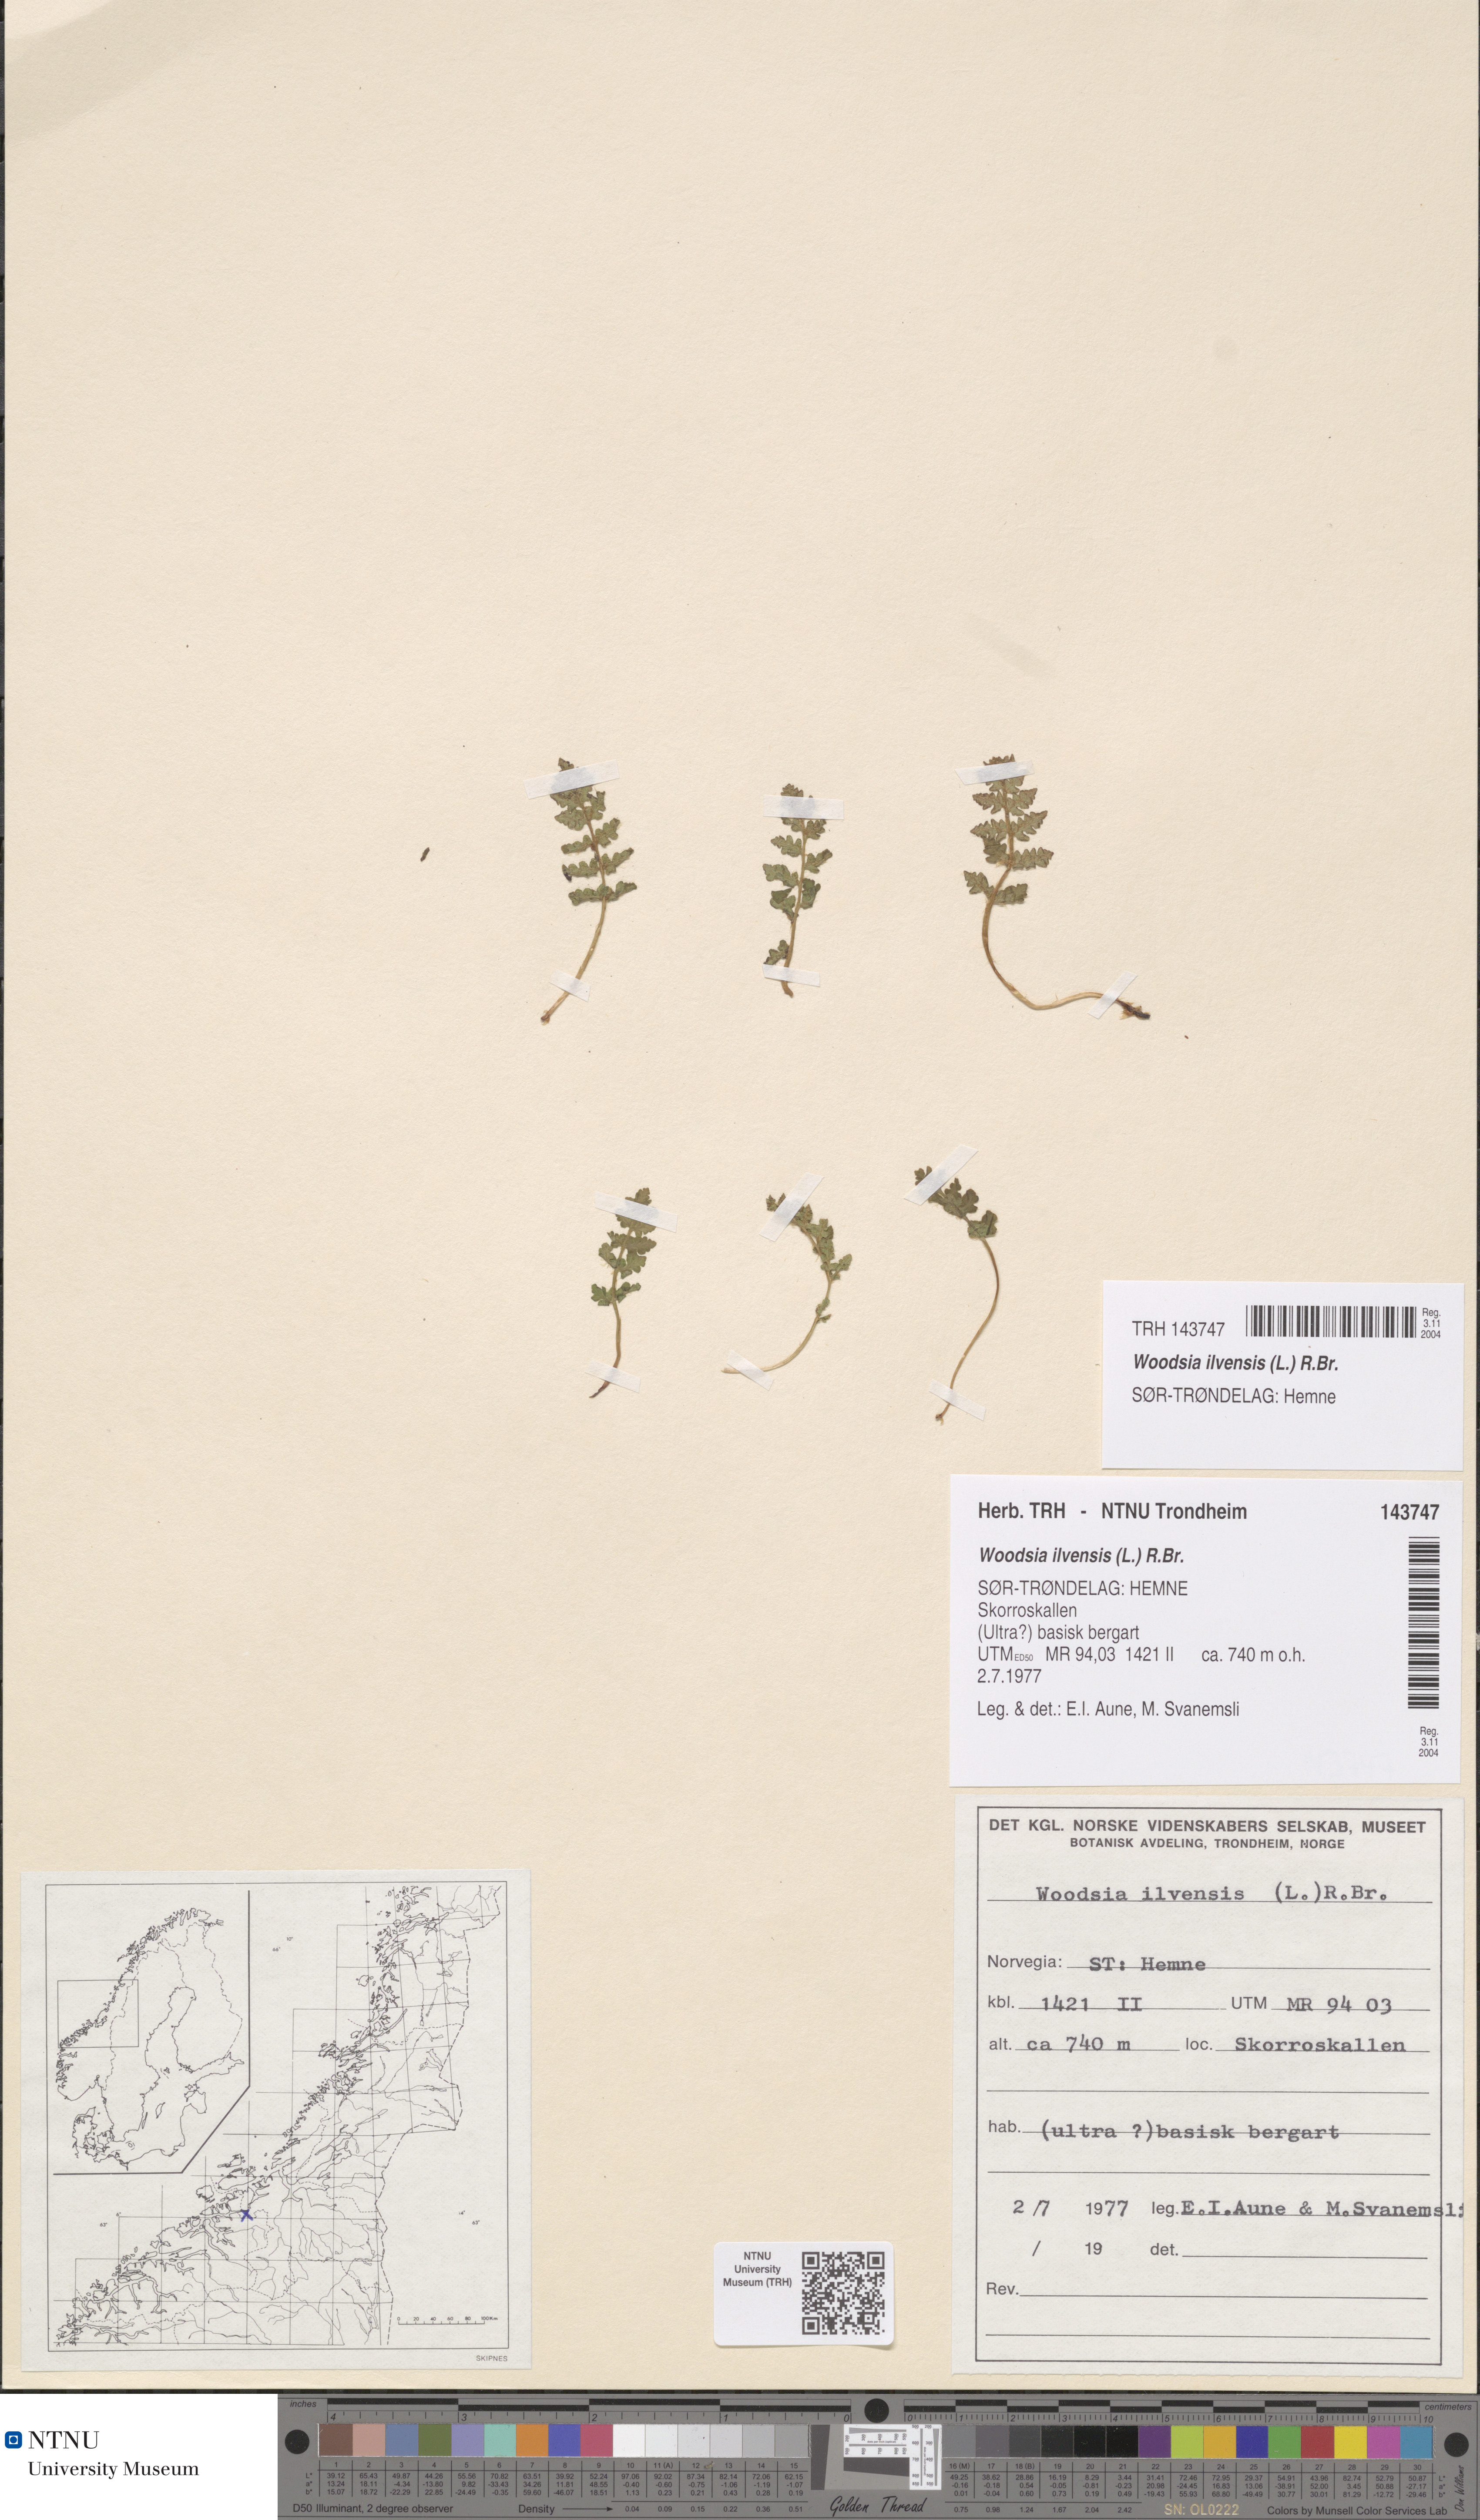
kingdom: Plantae
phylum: Tracheophyta
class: Polypodiopsida
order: Polypodiales
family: Woodsiaceae
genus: Woodsia
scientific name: Woodsia ilvensis
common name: Fragrant woodsia
